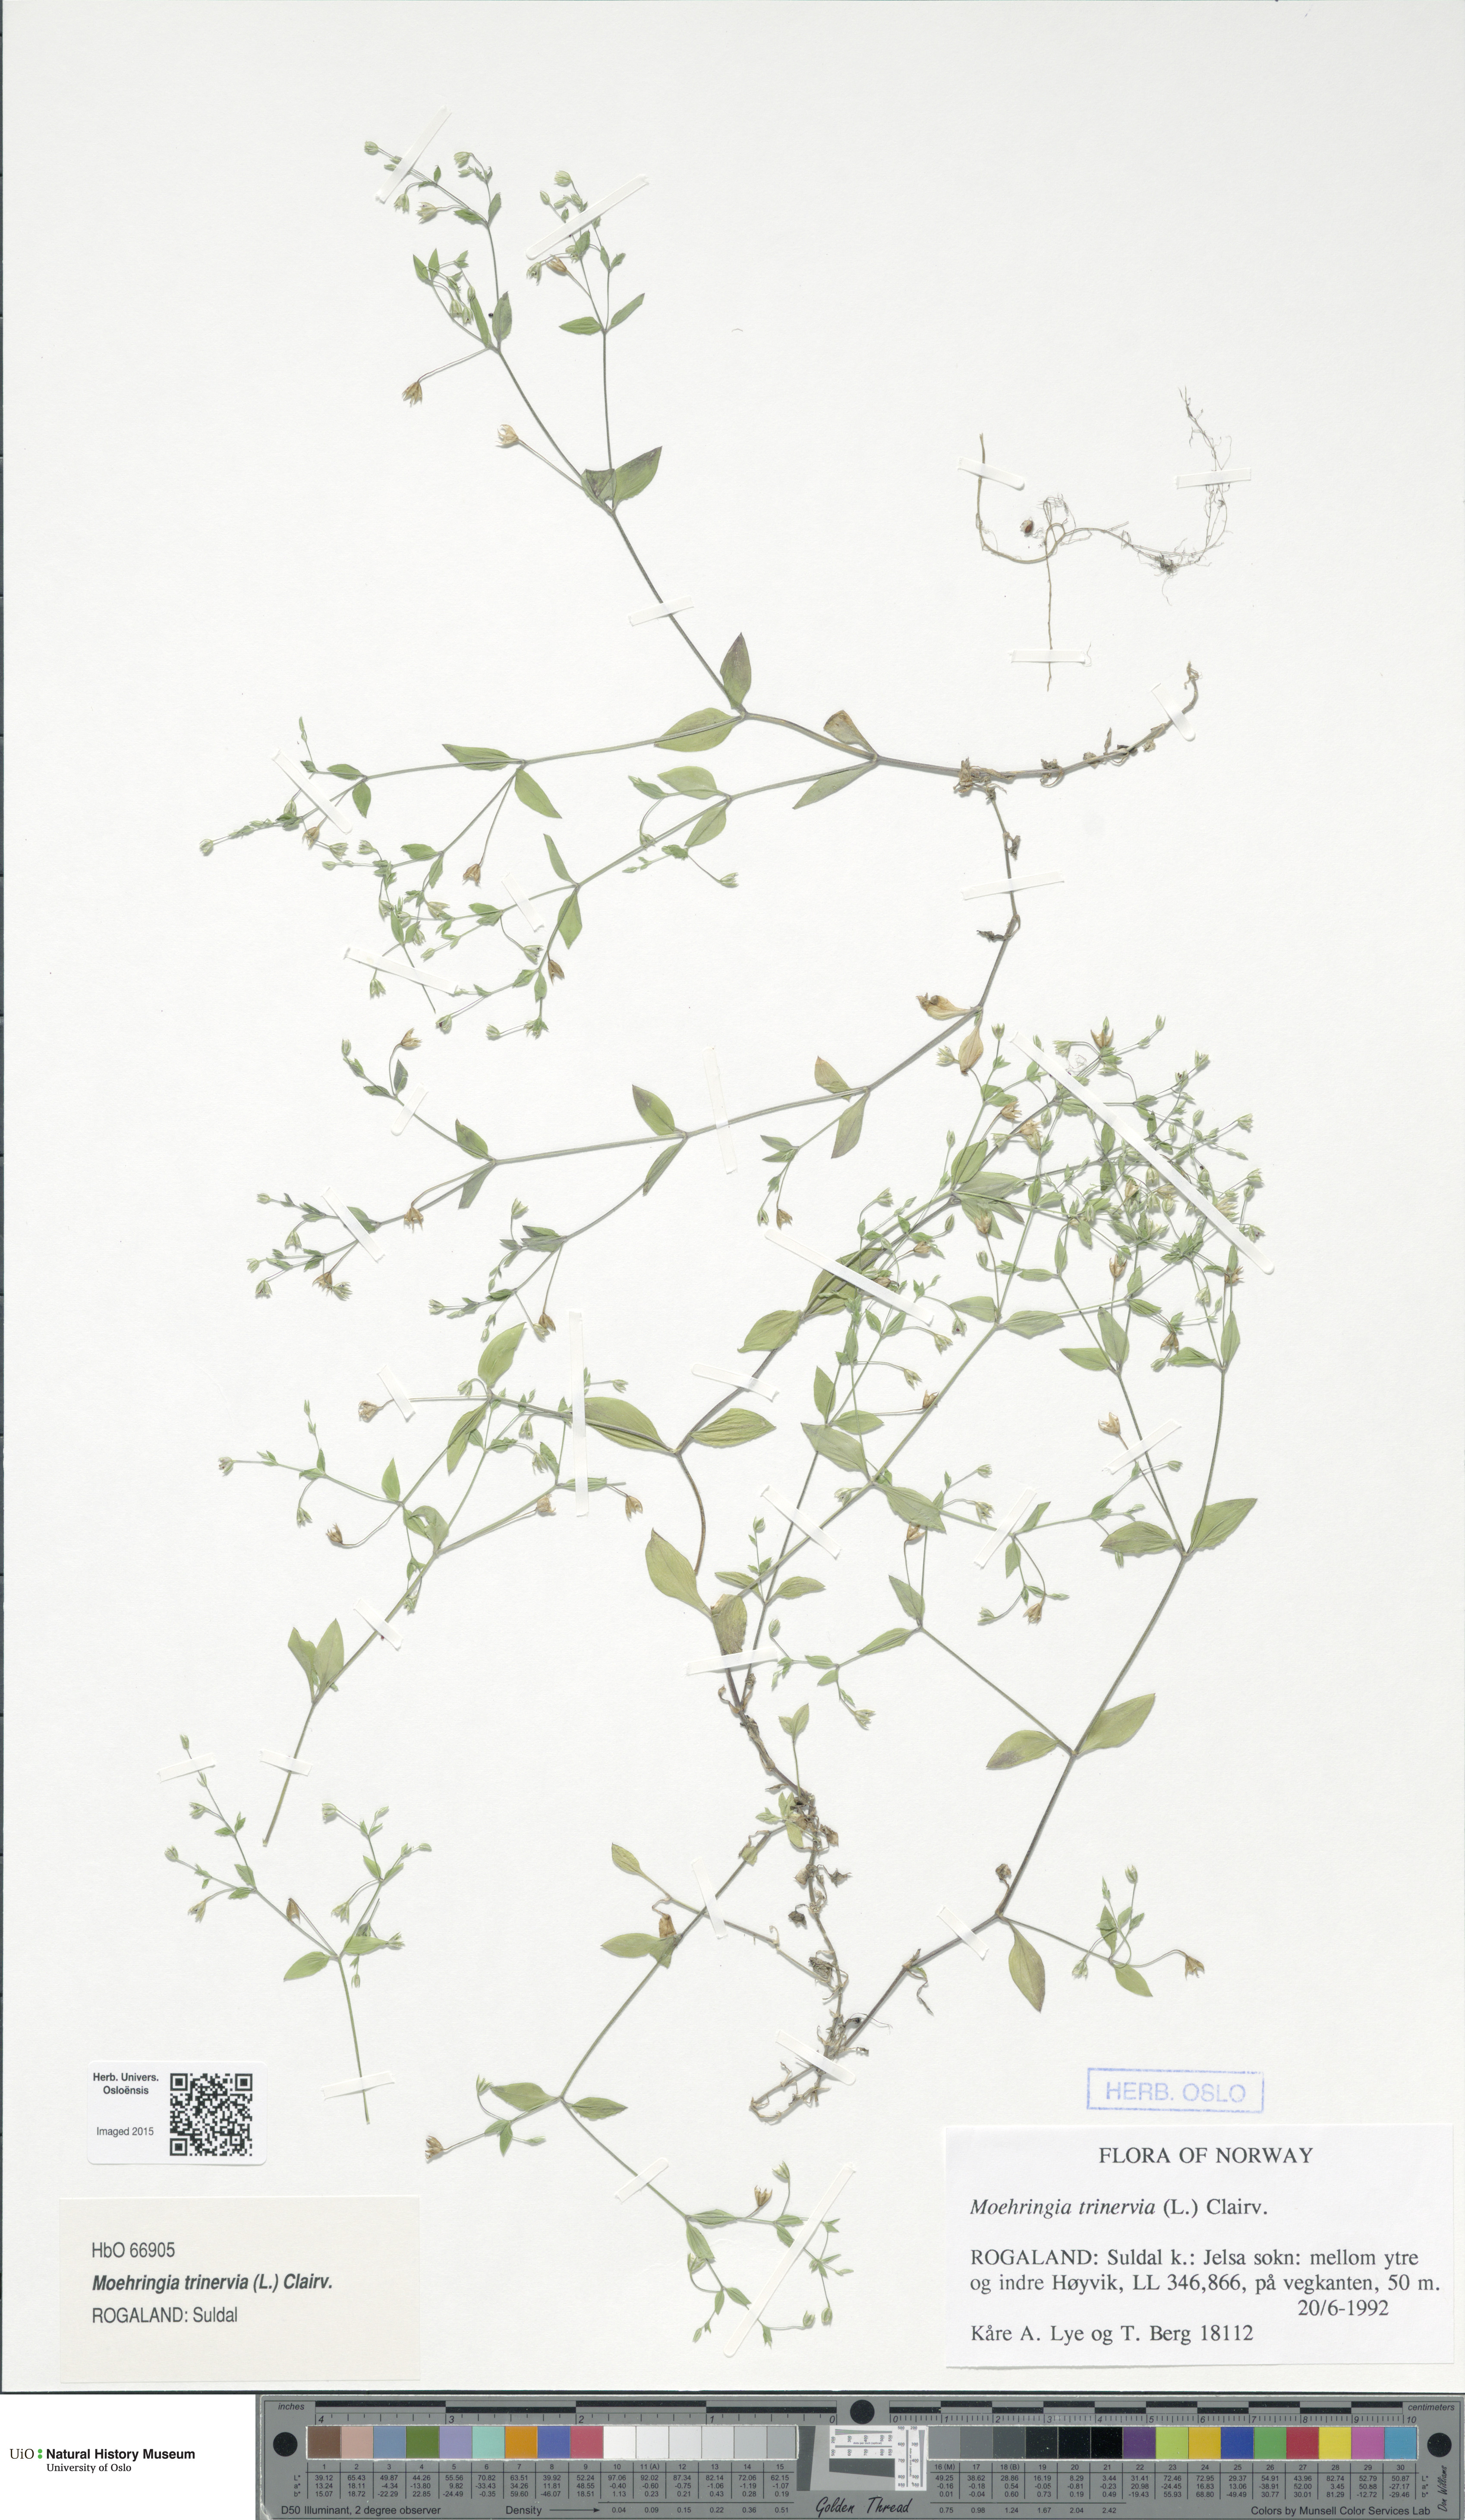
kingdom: Plantae
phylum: Tracheophyta
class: Magnoliopsida
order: Caryophyllales
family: Caryophyllaceae
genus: Moehringia
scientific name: Moehringia trinervia
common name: Three-nerved sandwort
